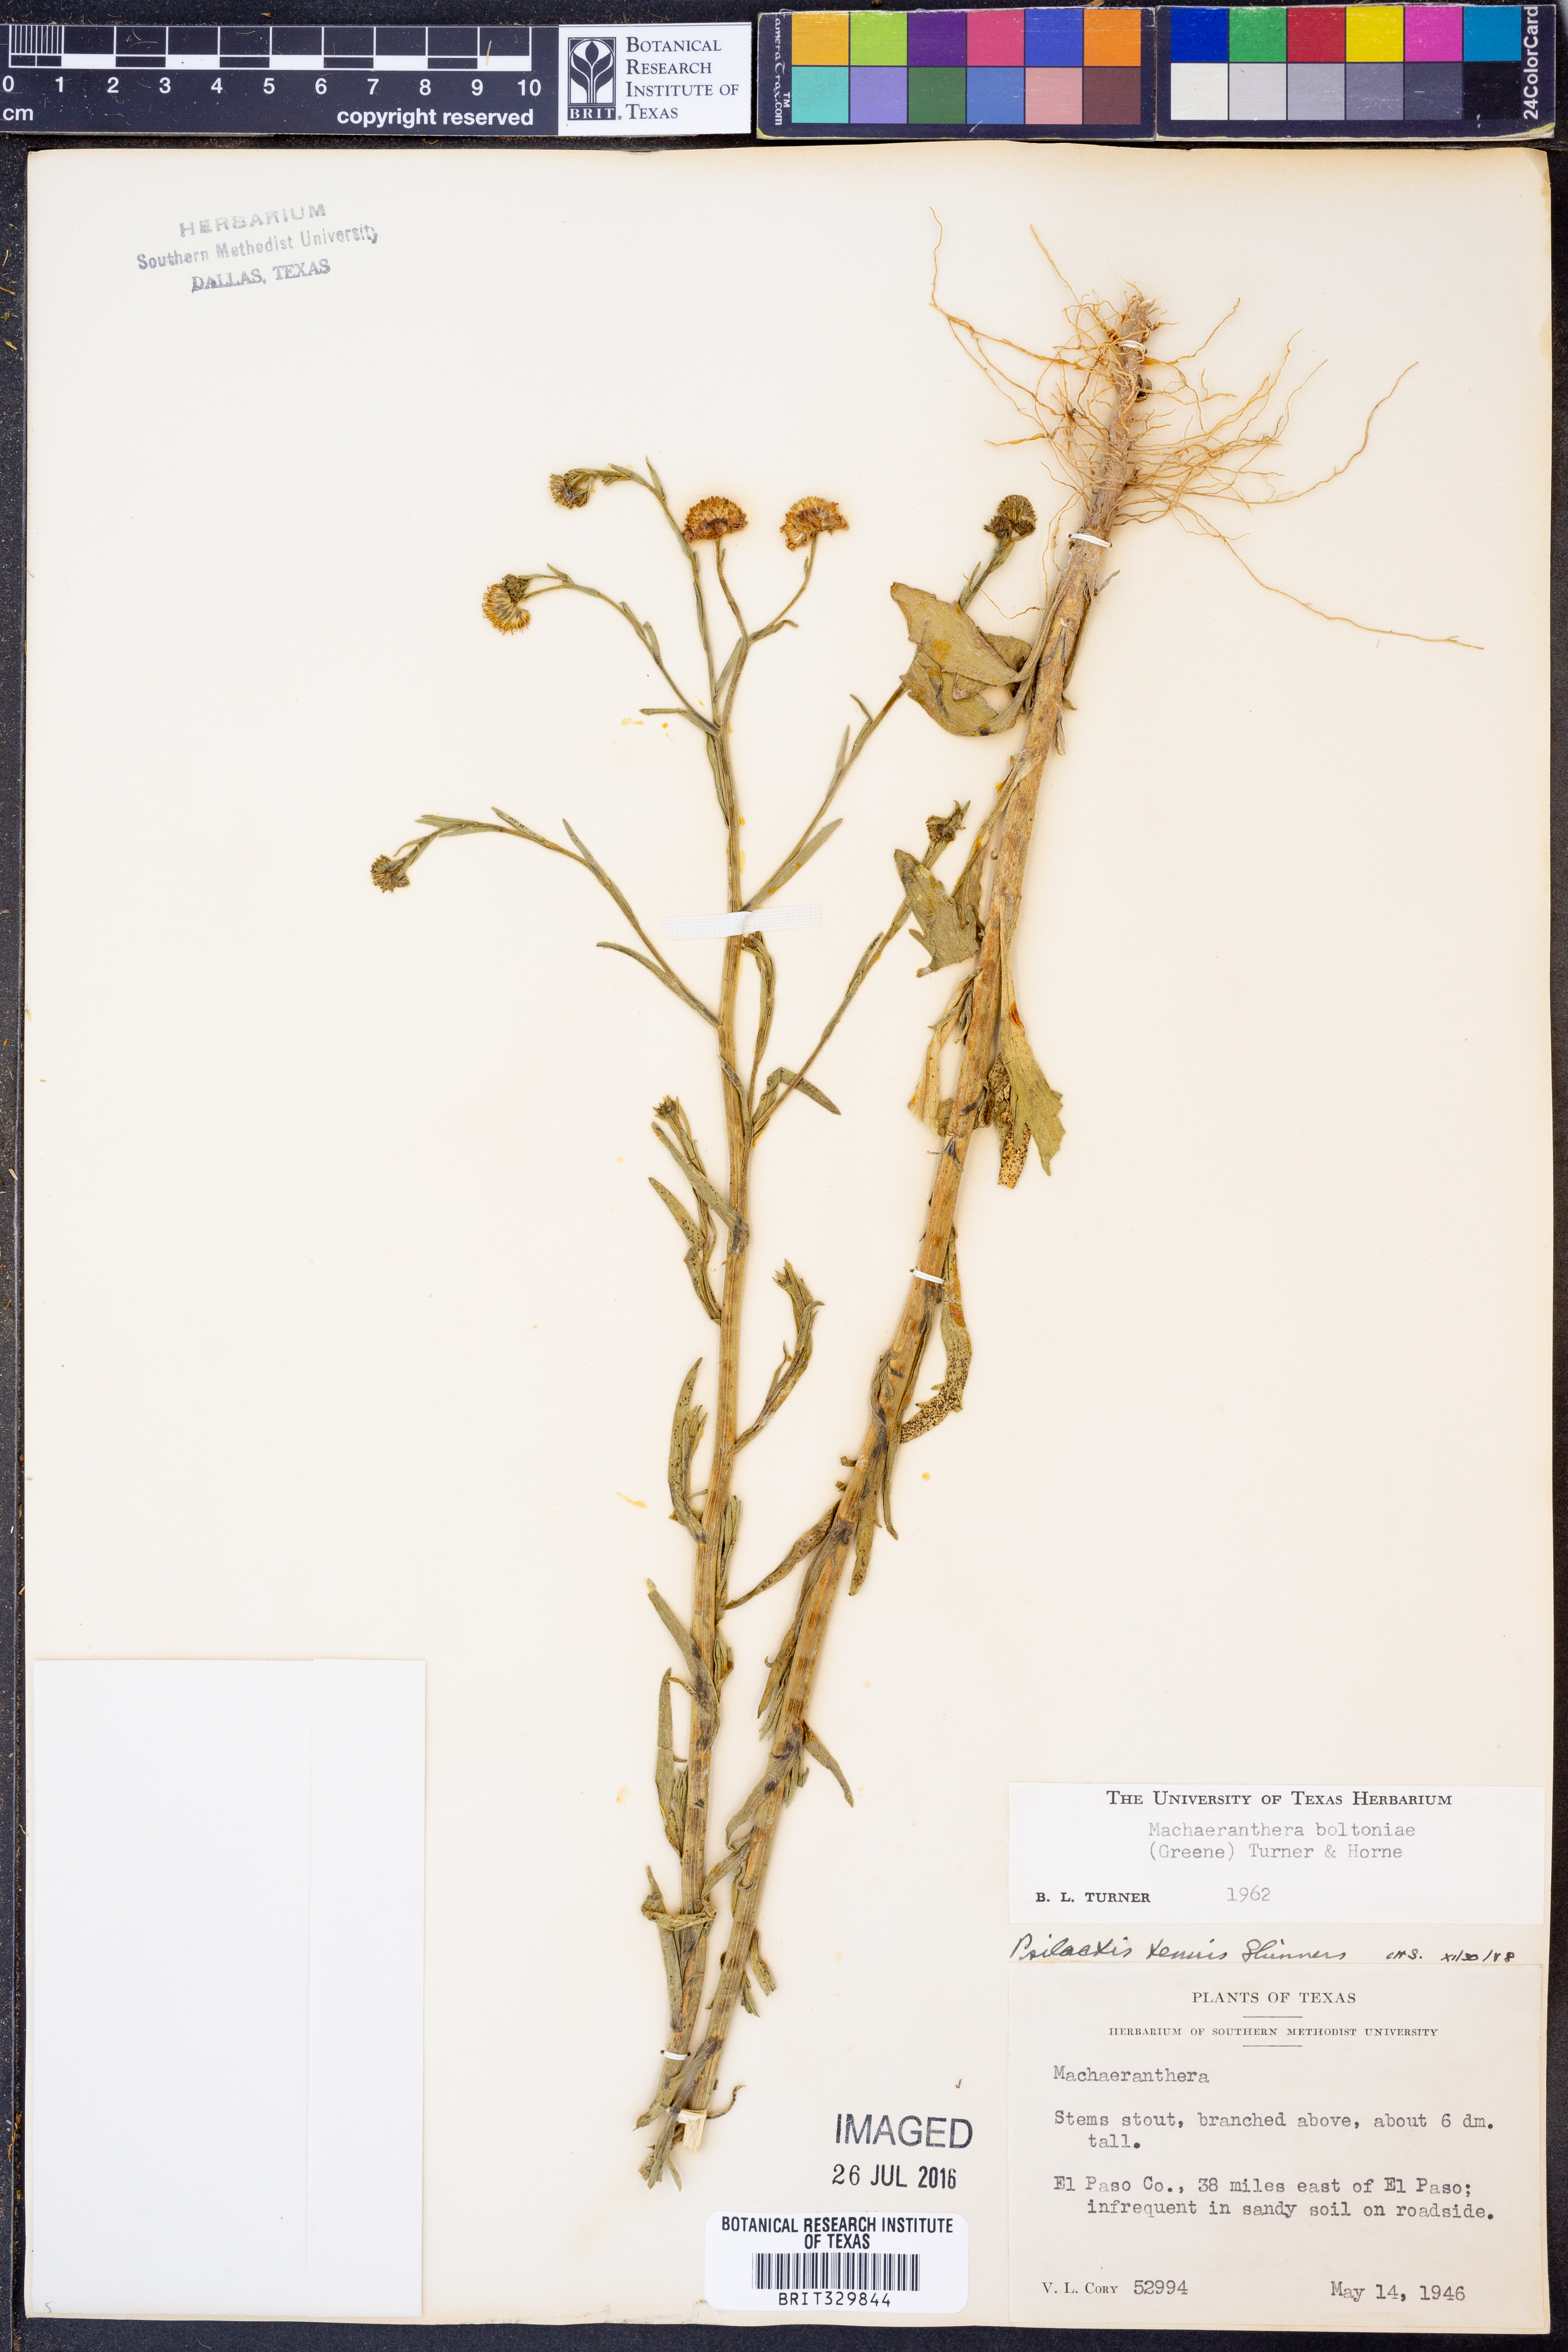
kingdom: Plantae
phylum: Tracheophyta
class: Magnoliopsida
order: Asterales
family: Asteraceae
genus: Psilactis
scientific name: Psilactis asteroides
